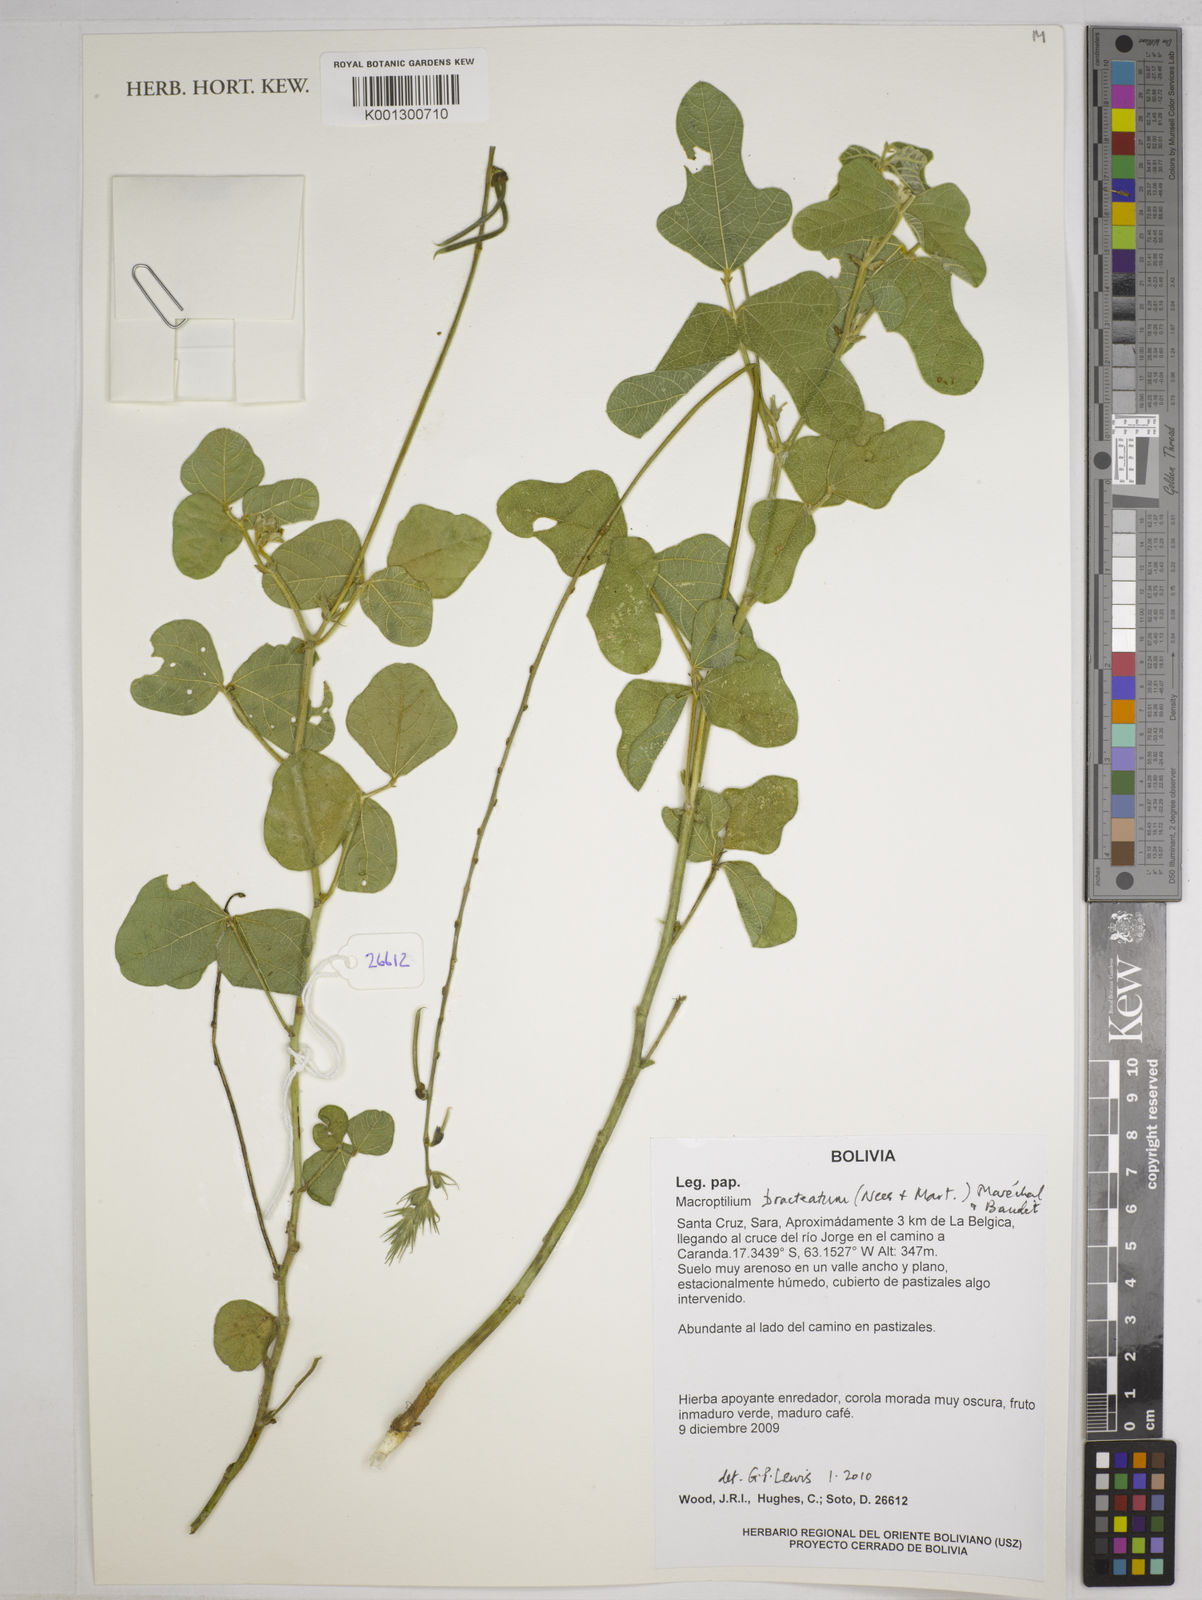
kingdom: Plantae
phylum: Tracheophyta
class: Magnoliopsida
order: Fabales
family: Fabaceae
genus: Macroptilium
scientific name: Macroptilium bracteatum
